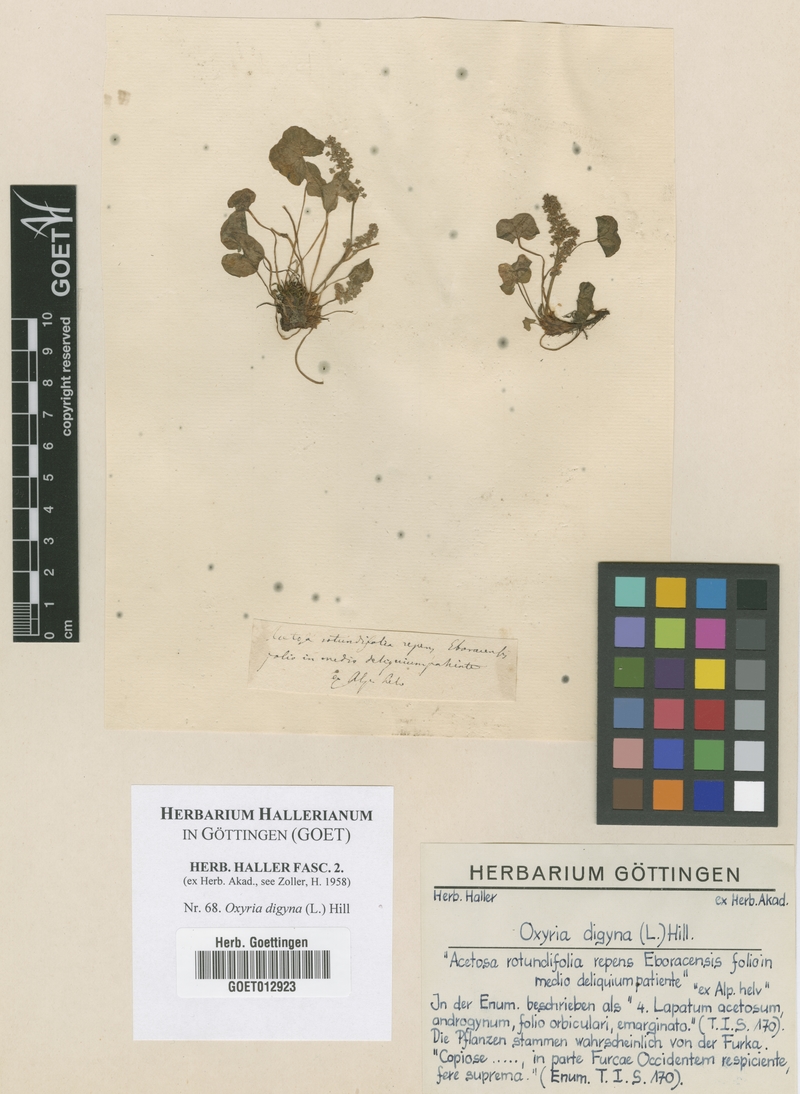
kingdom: Plantae
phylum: Tracheophyta
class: Magnoliopsida
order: Caryophyllales
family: Polygonaceae
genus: Oxyria
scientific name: Oxyria digyna
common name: Alpine mountain-sorrel
